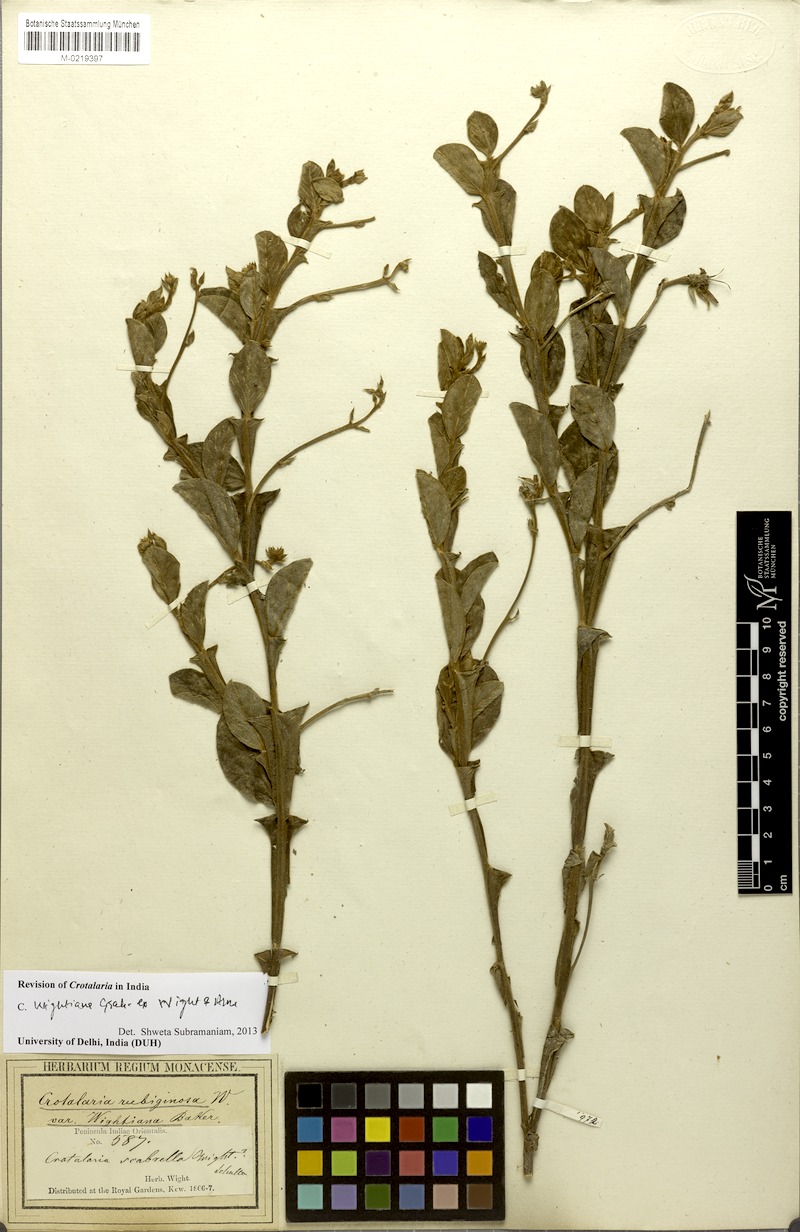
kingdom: Plantae
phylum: Tracheophyta
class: Magnoliopsida
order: Fabales
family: Fabaceae
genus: Crotalaria
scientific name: Crotalaria wightiana
